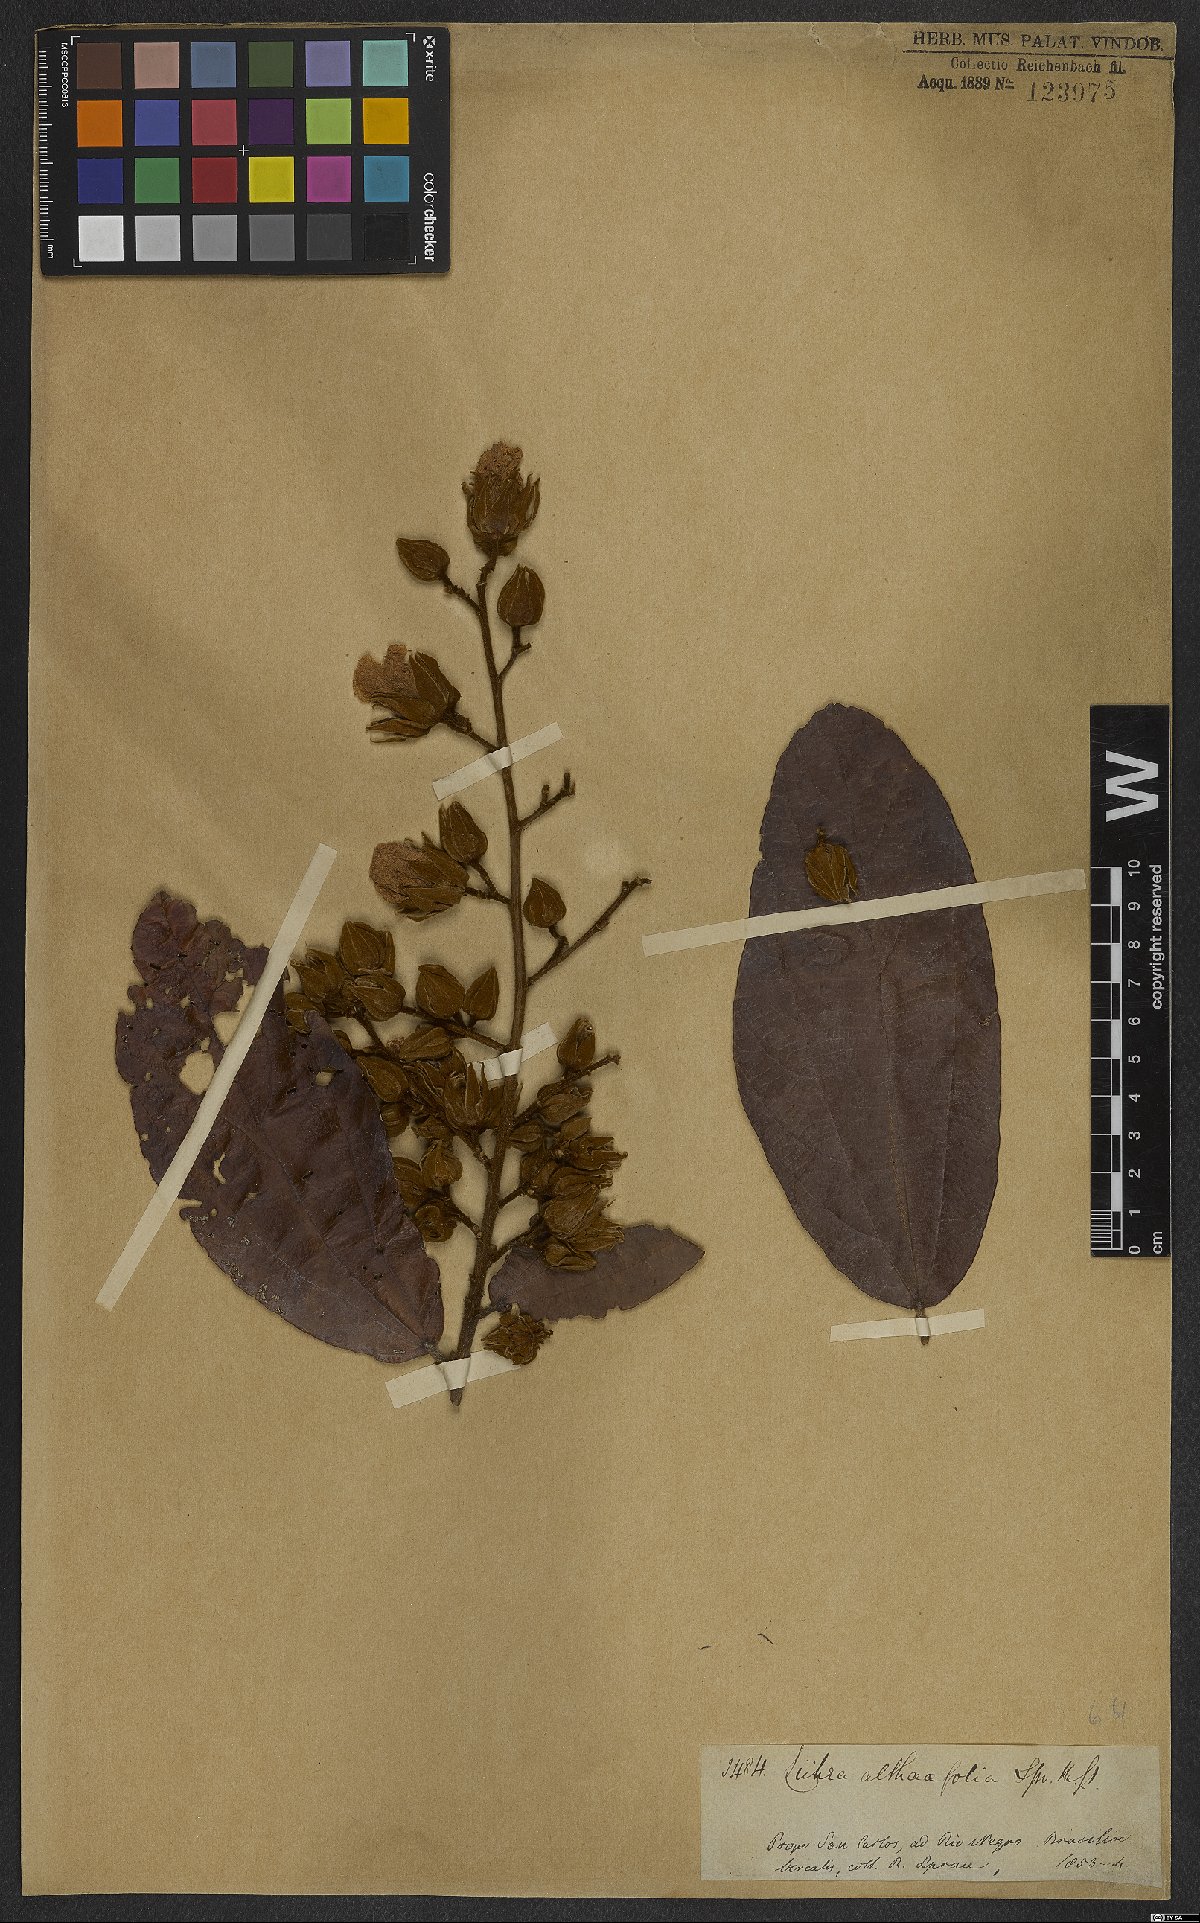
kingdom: Plantae
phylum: Tracheophyta
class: Magnoliopsida
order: Malvales
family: Malvaceae
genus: Lueheopsis
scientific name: Lueheopsis althaeiflora
